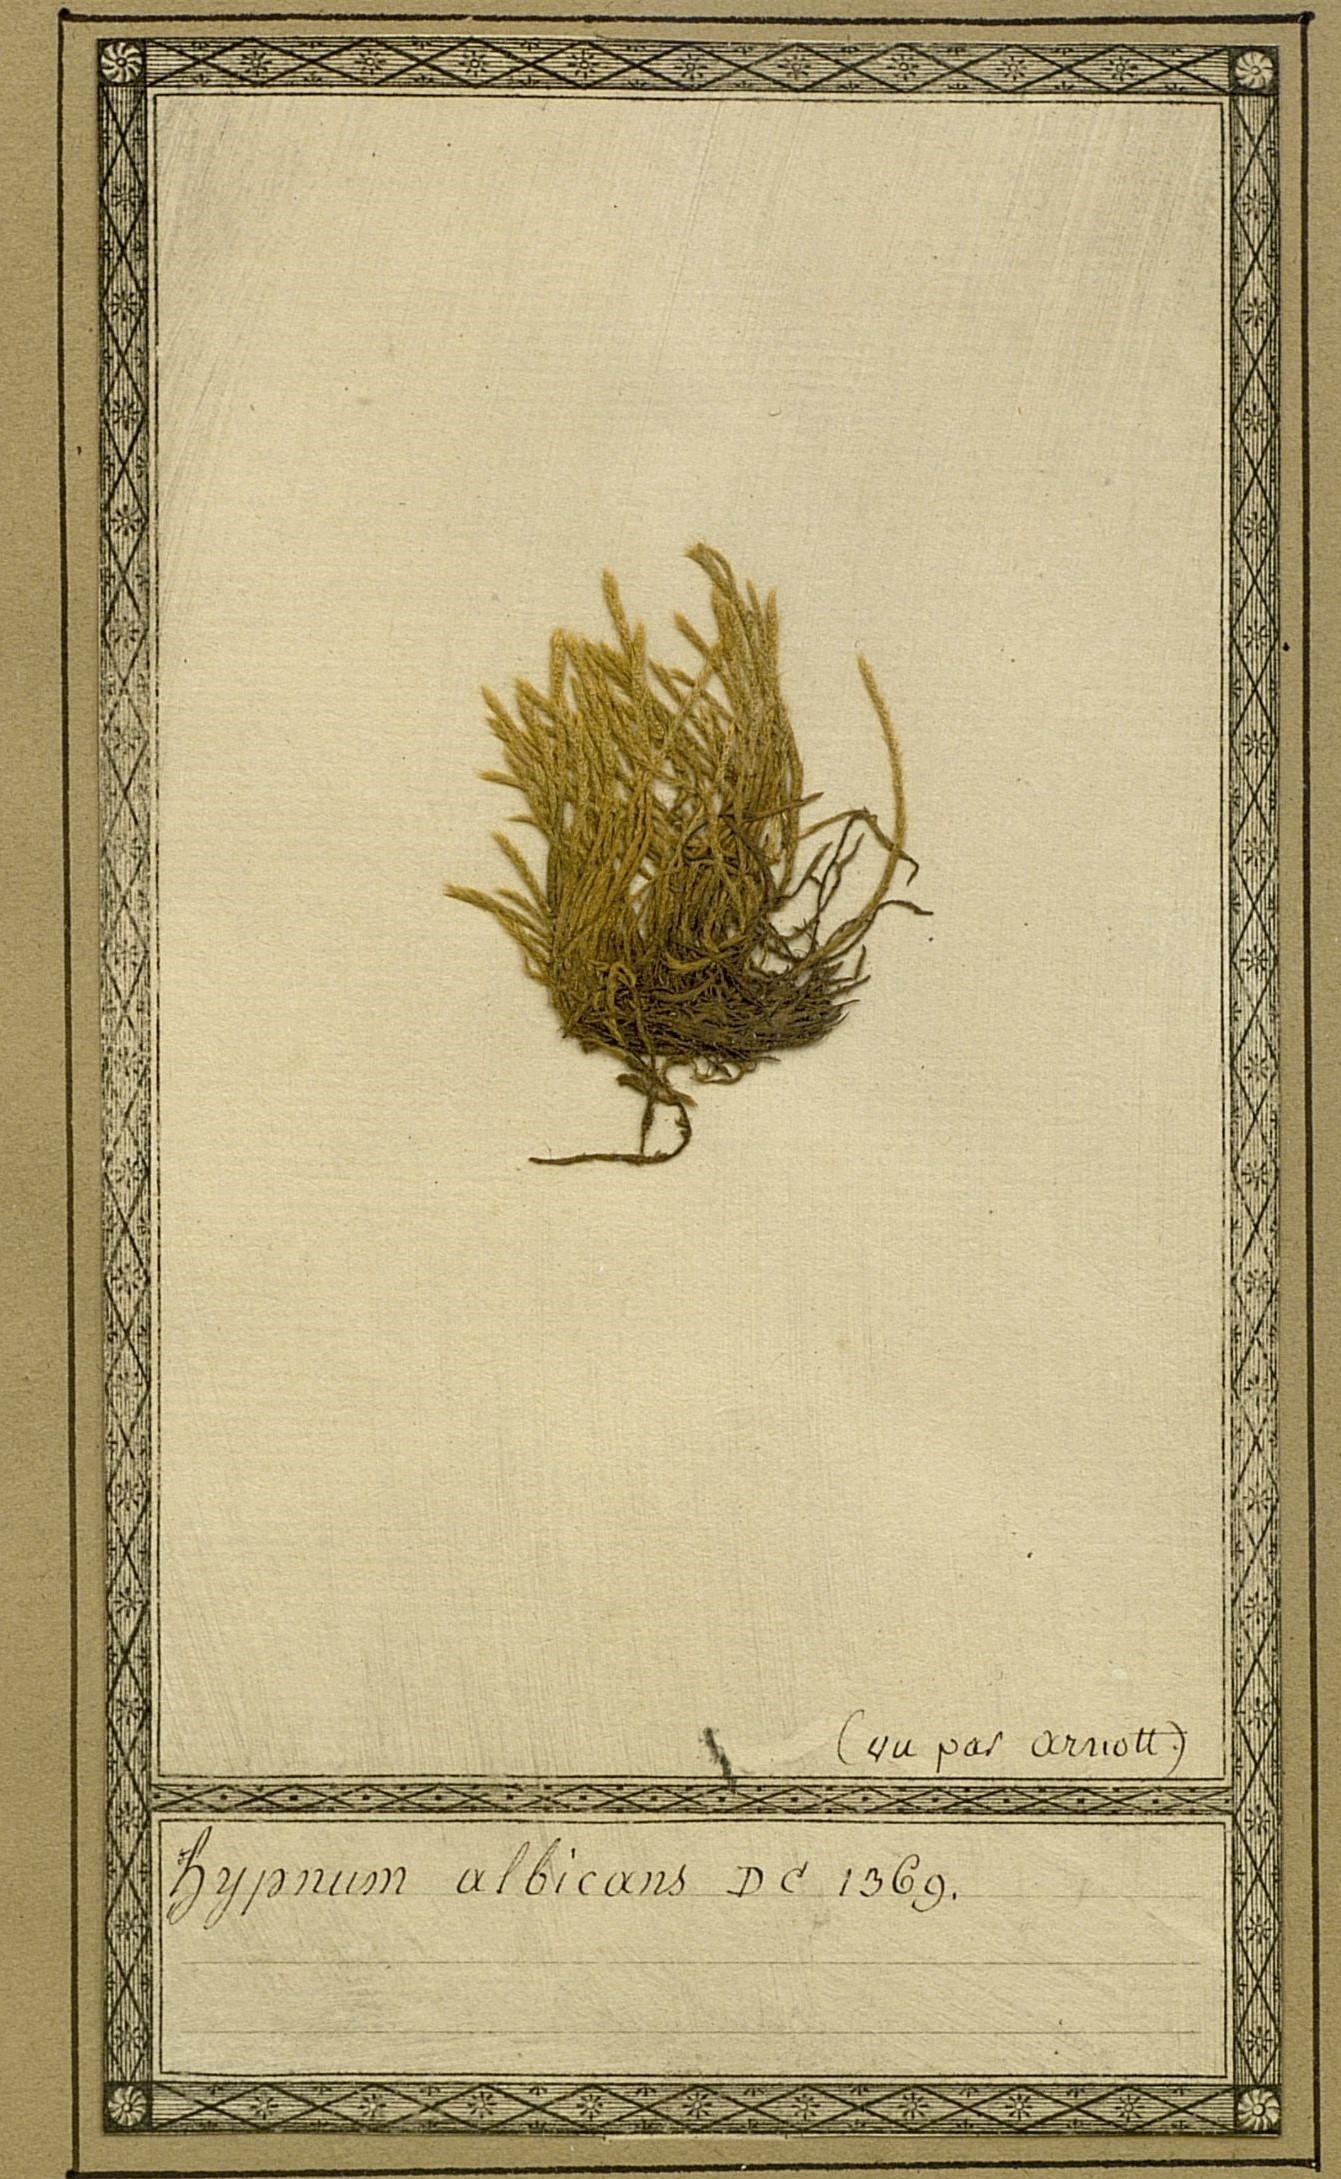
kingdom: Plantae
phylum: Bryophyta
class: Bryopsida
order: Hypnales
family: Brachytheciaceae
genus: Brachythecium
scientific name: Brachythecium albicans
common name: Whitish ragged moss
